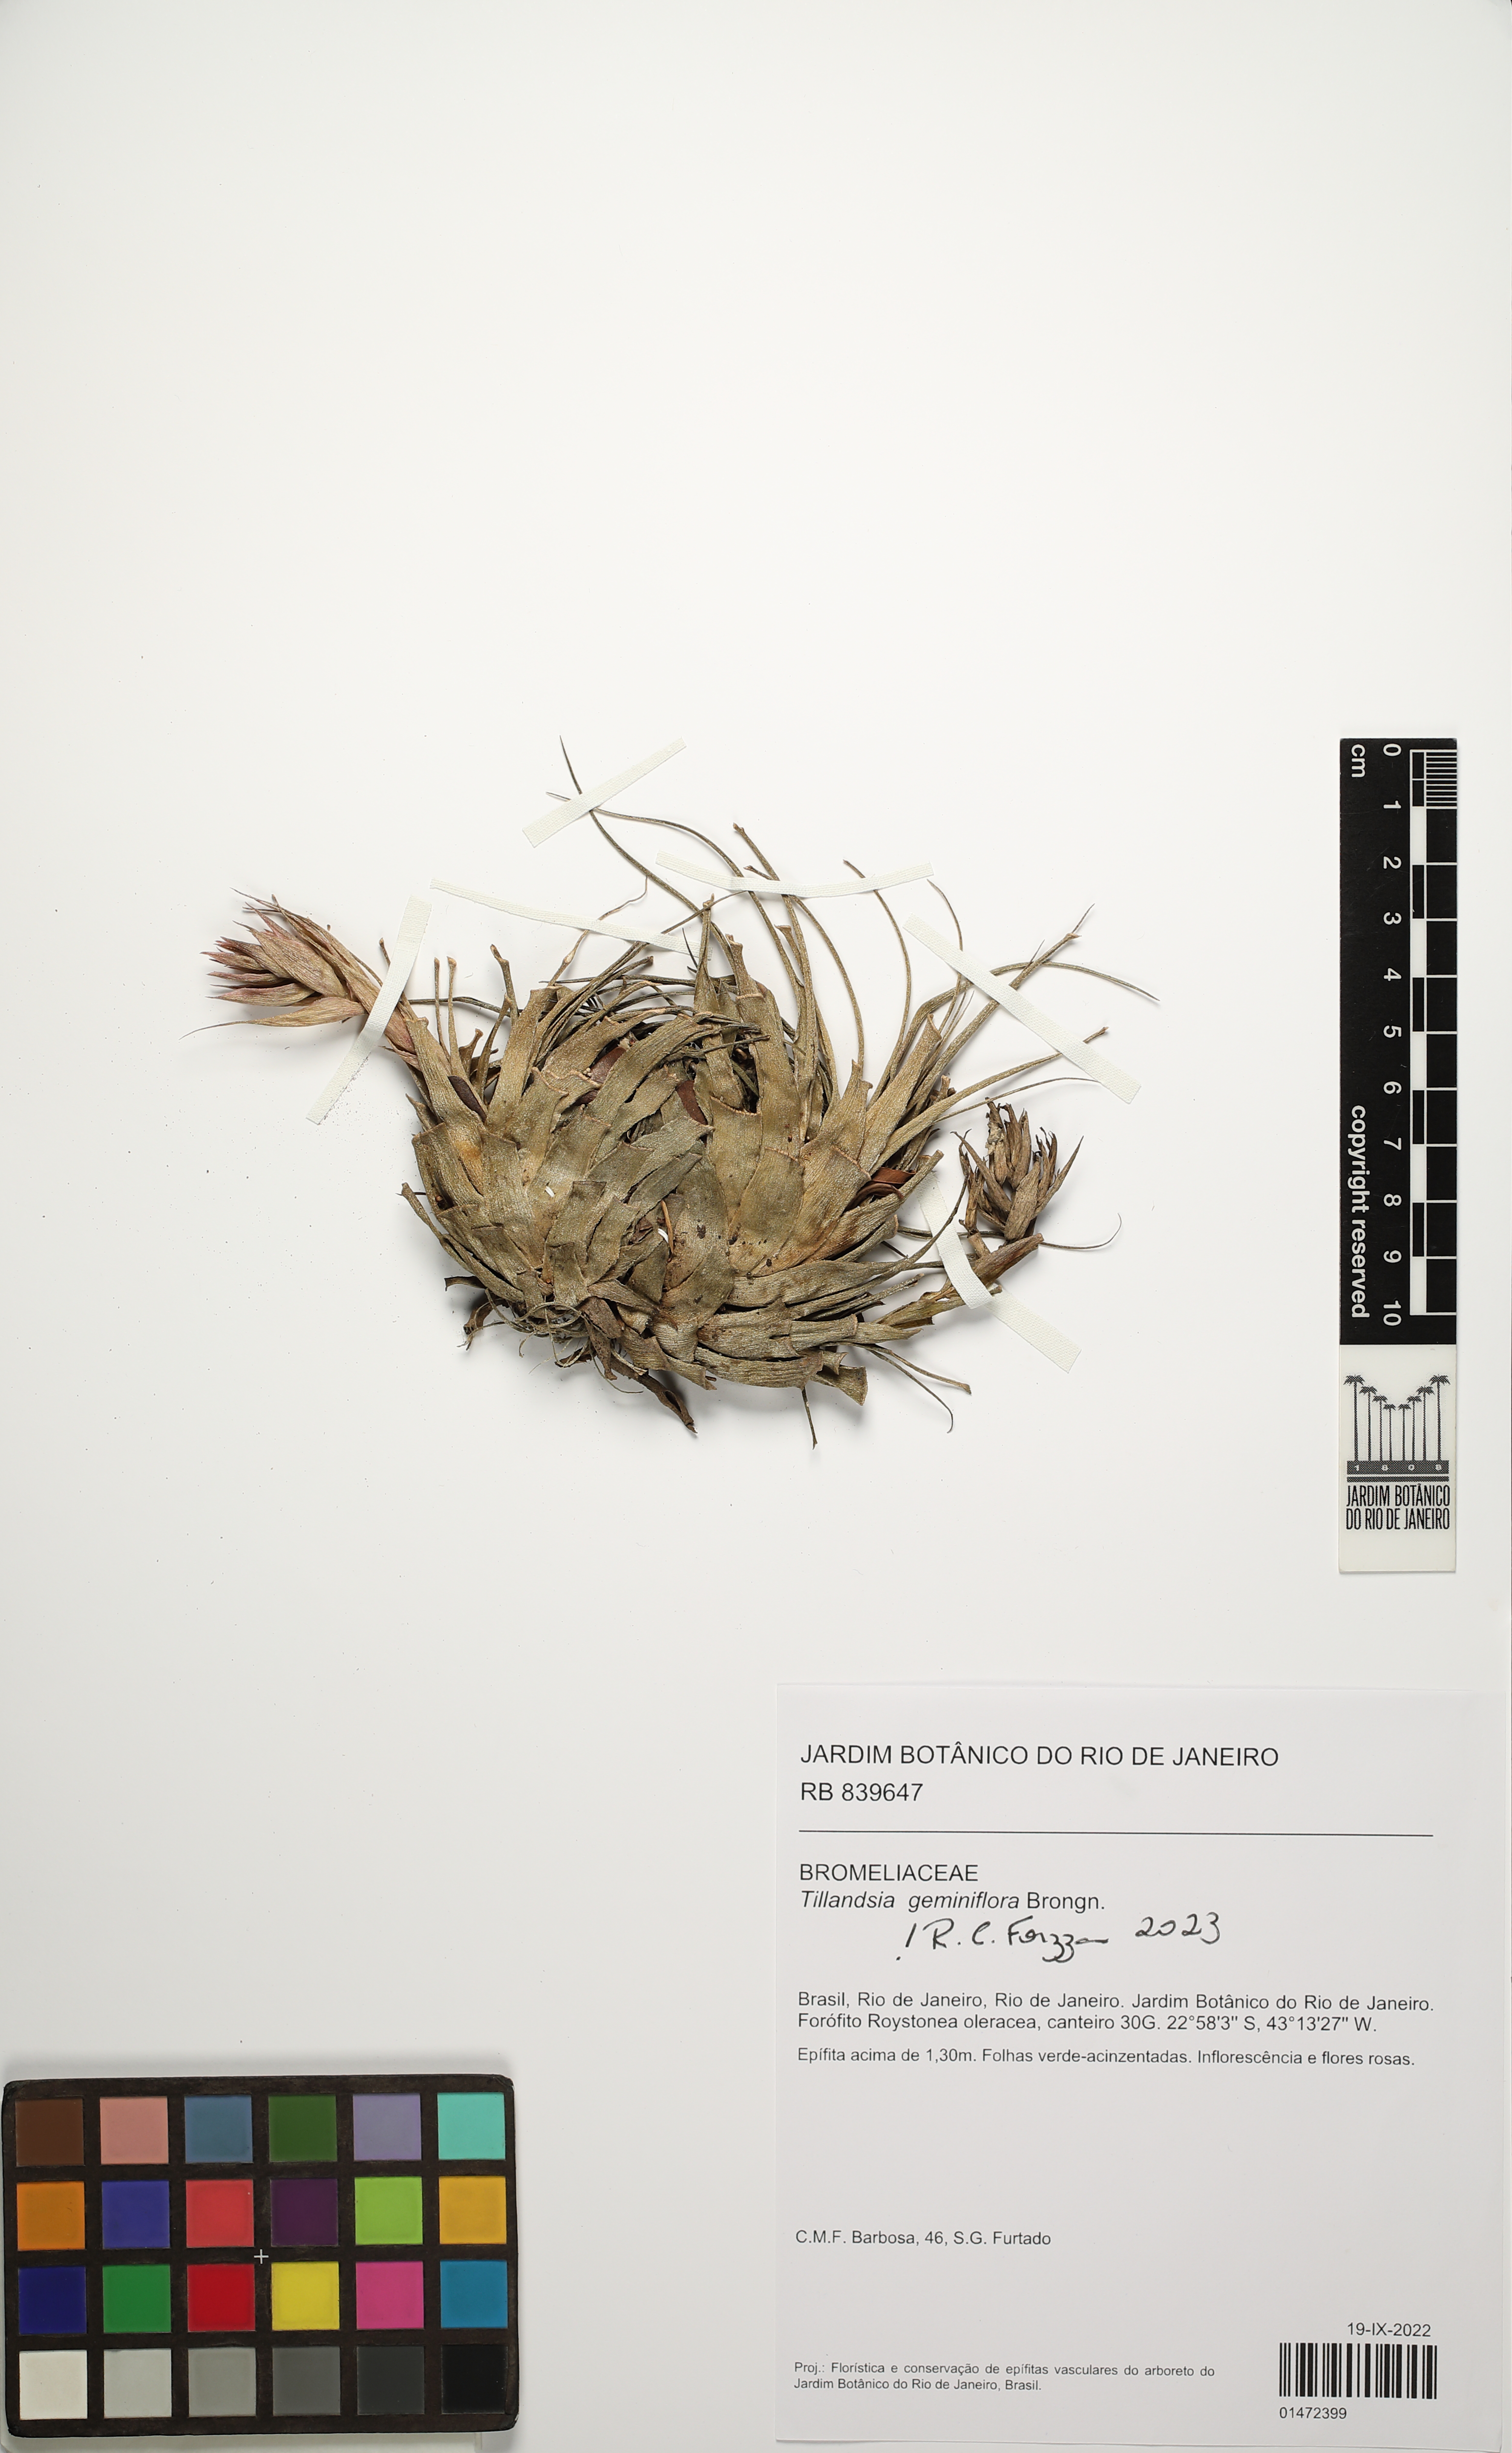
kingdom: Plantae
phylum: Tracheophyta
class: Liliopsida
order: Poales
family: Bromeliaceae
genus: Tillandsia
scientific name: Tillandsia geminiflora
